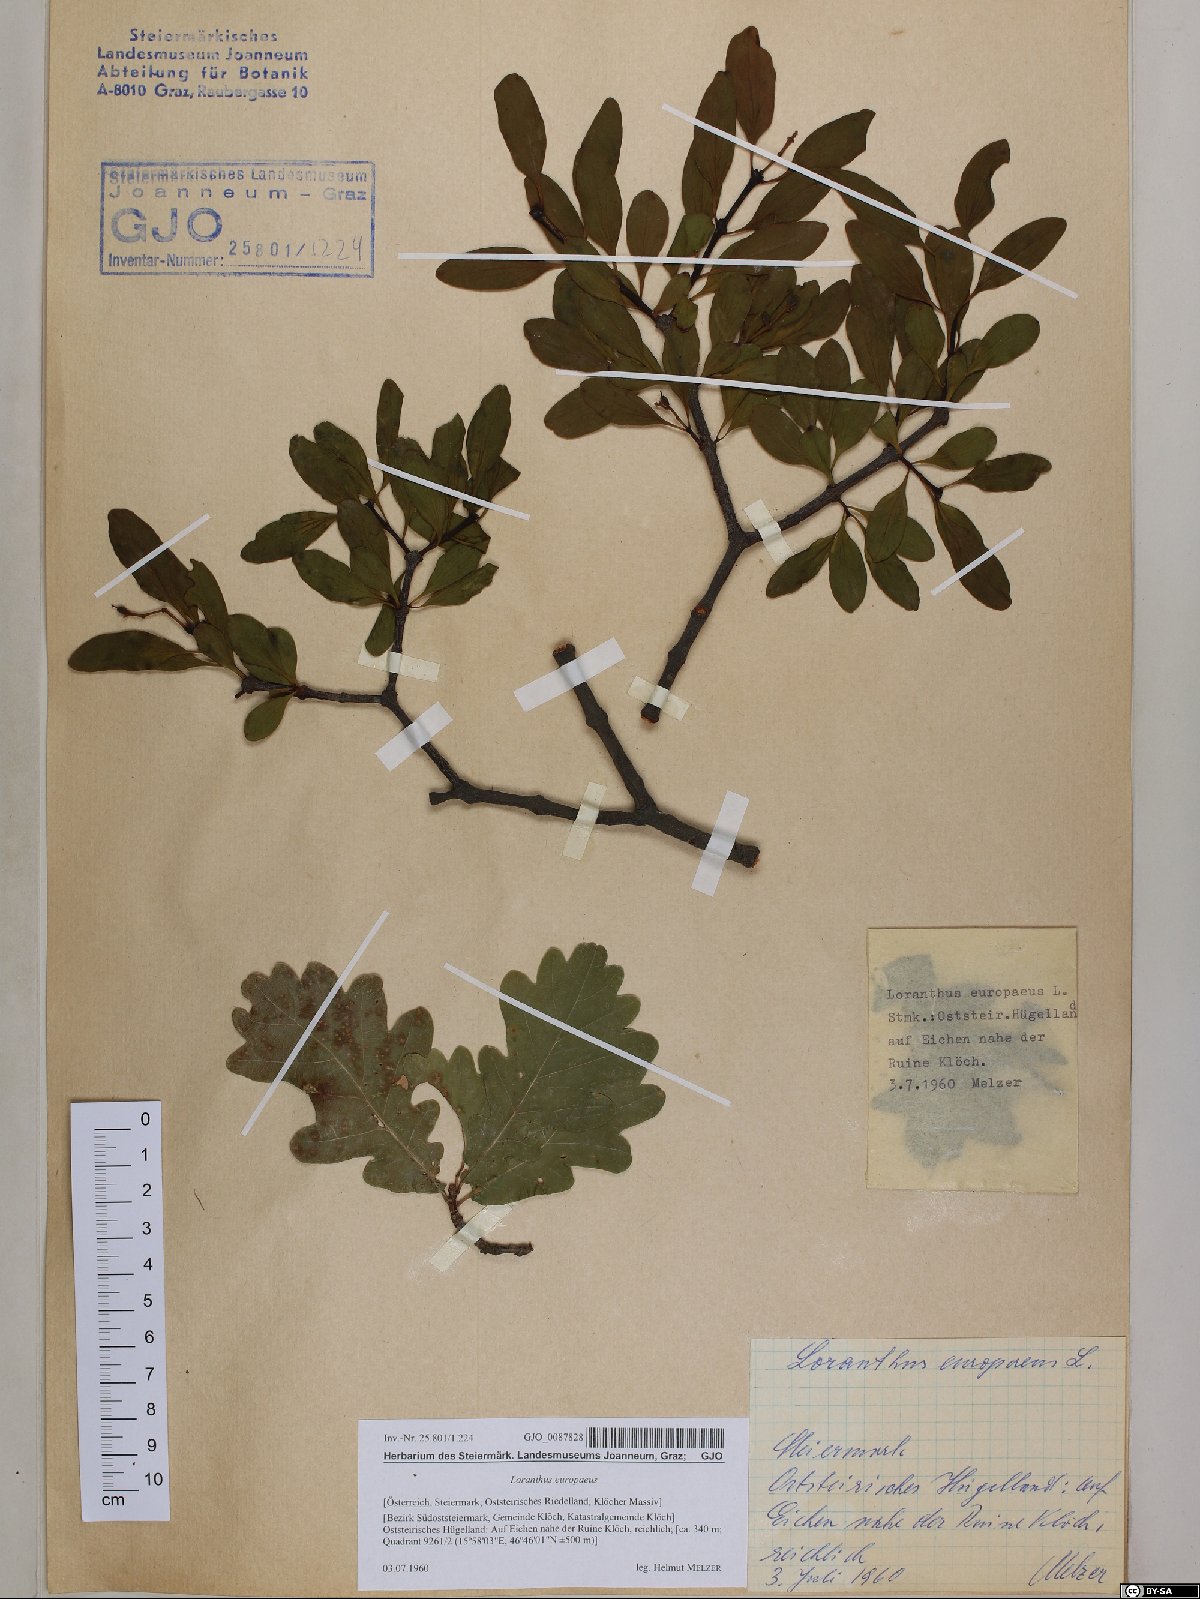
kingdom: Plantae
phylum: Tracheophyta
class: Magnoliopsida
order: Santalales
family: Loranthaceae
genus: Loranthus
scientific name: Loranthus europaeus
